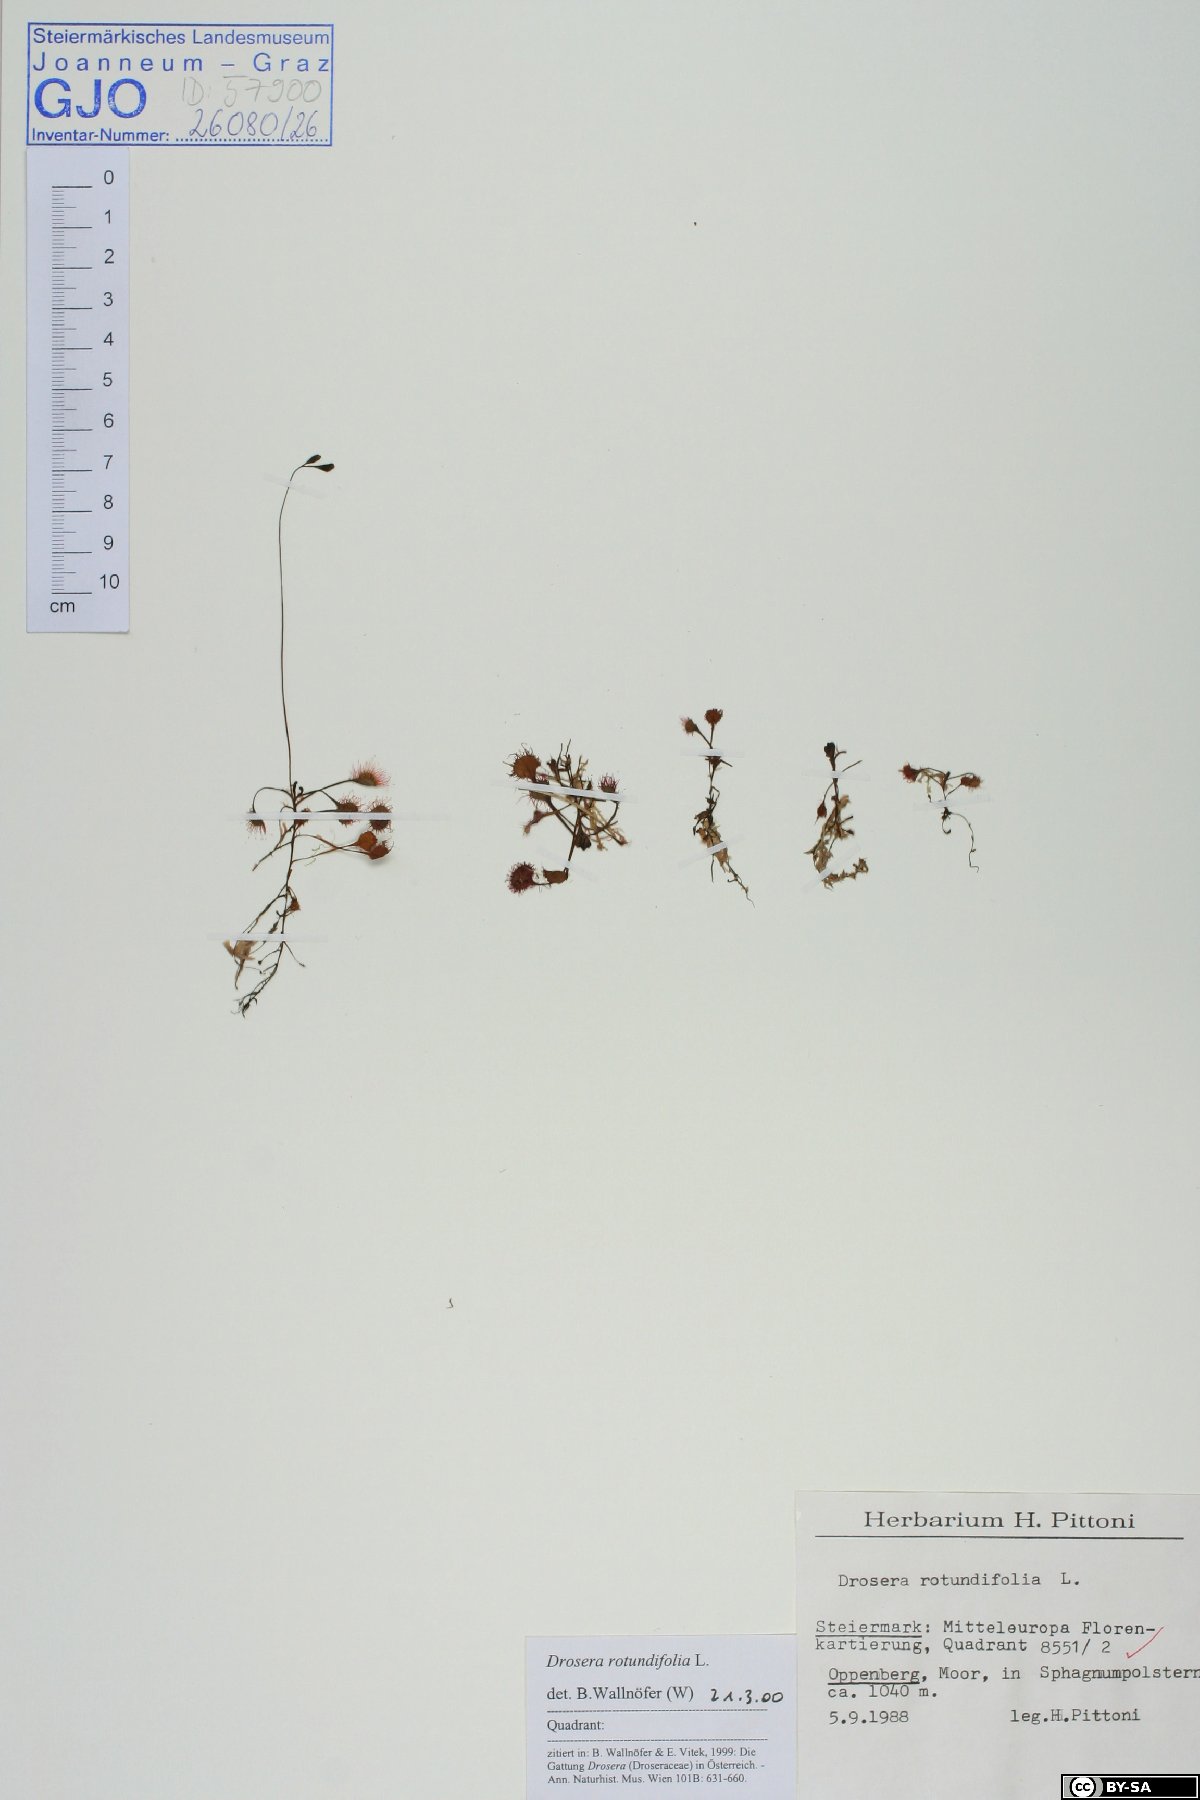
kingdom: Plantae
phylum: Tracheophyta
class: Magnoliopsida
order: Caryophyllales
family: Droseraceae
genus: Drosera
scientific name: Drosera rotundifolia
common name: Round-leaved sundew
